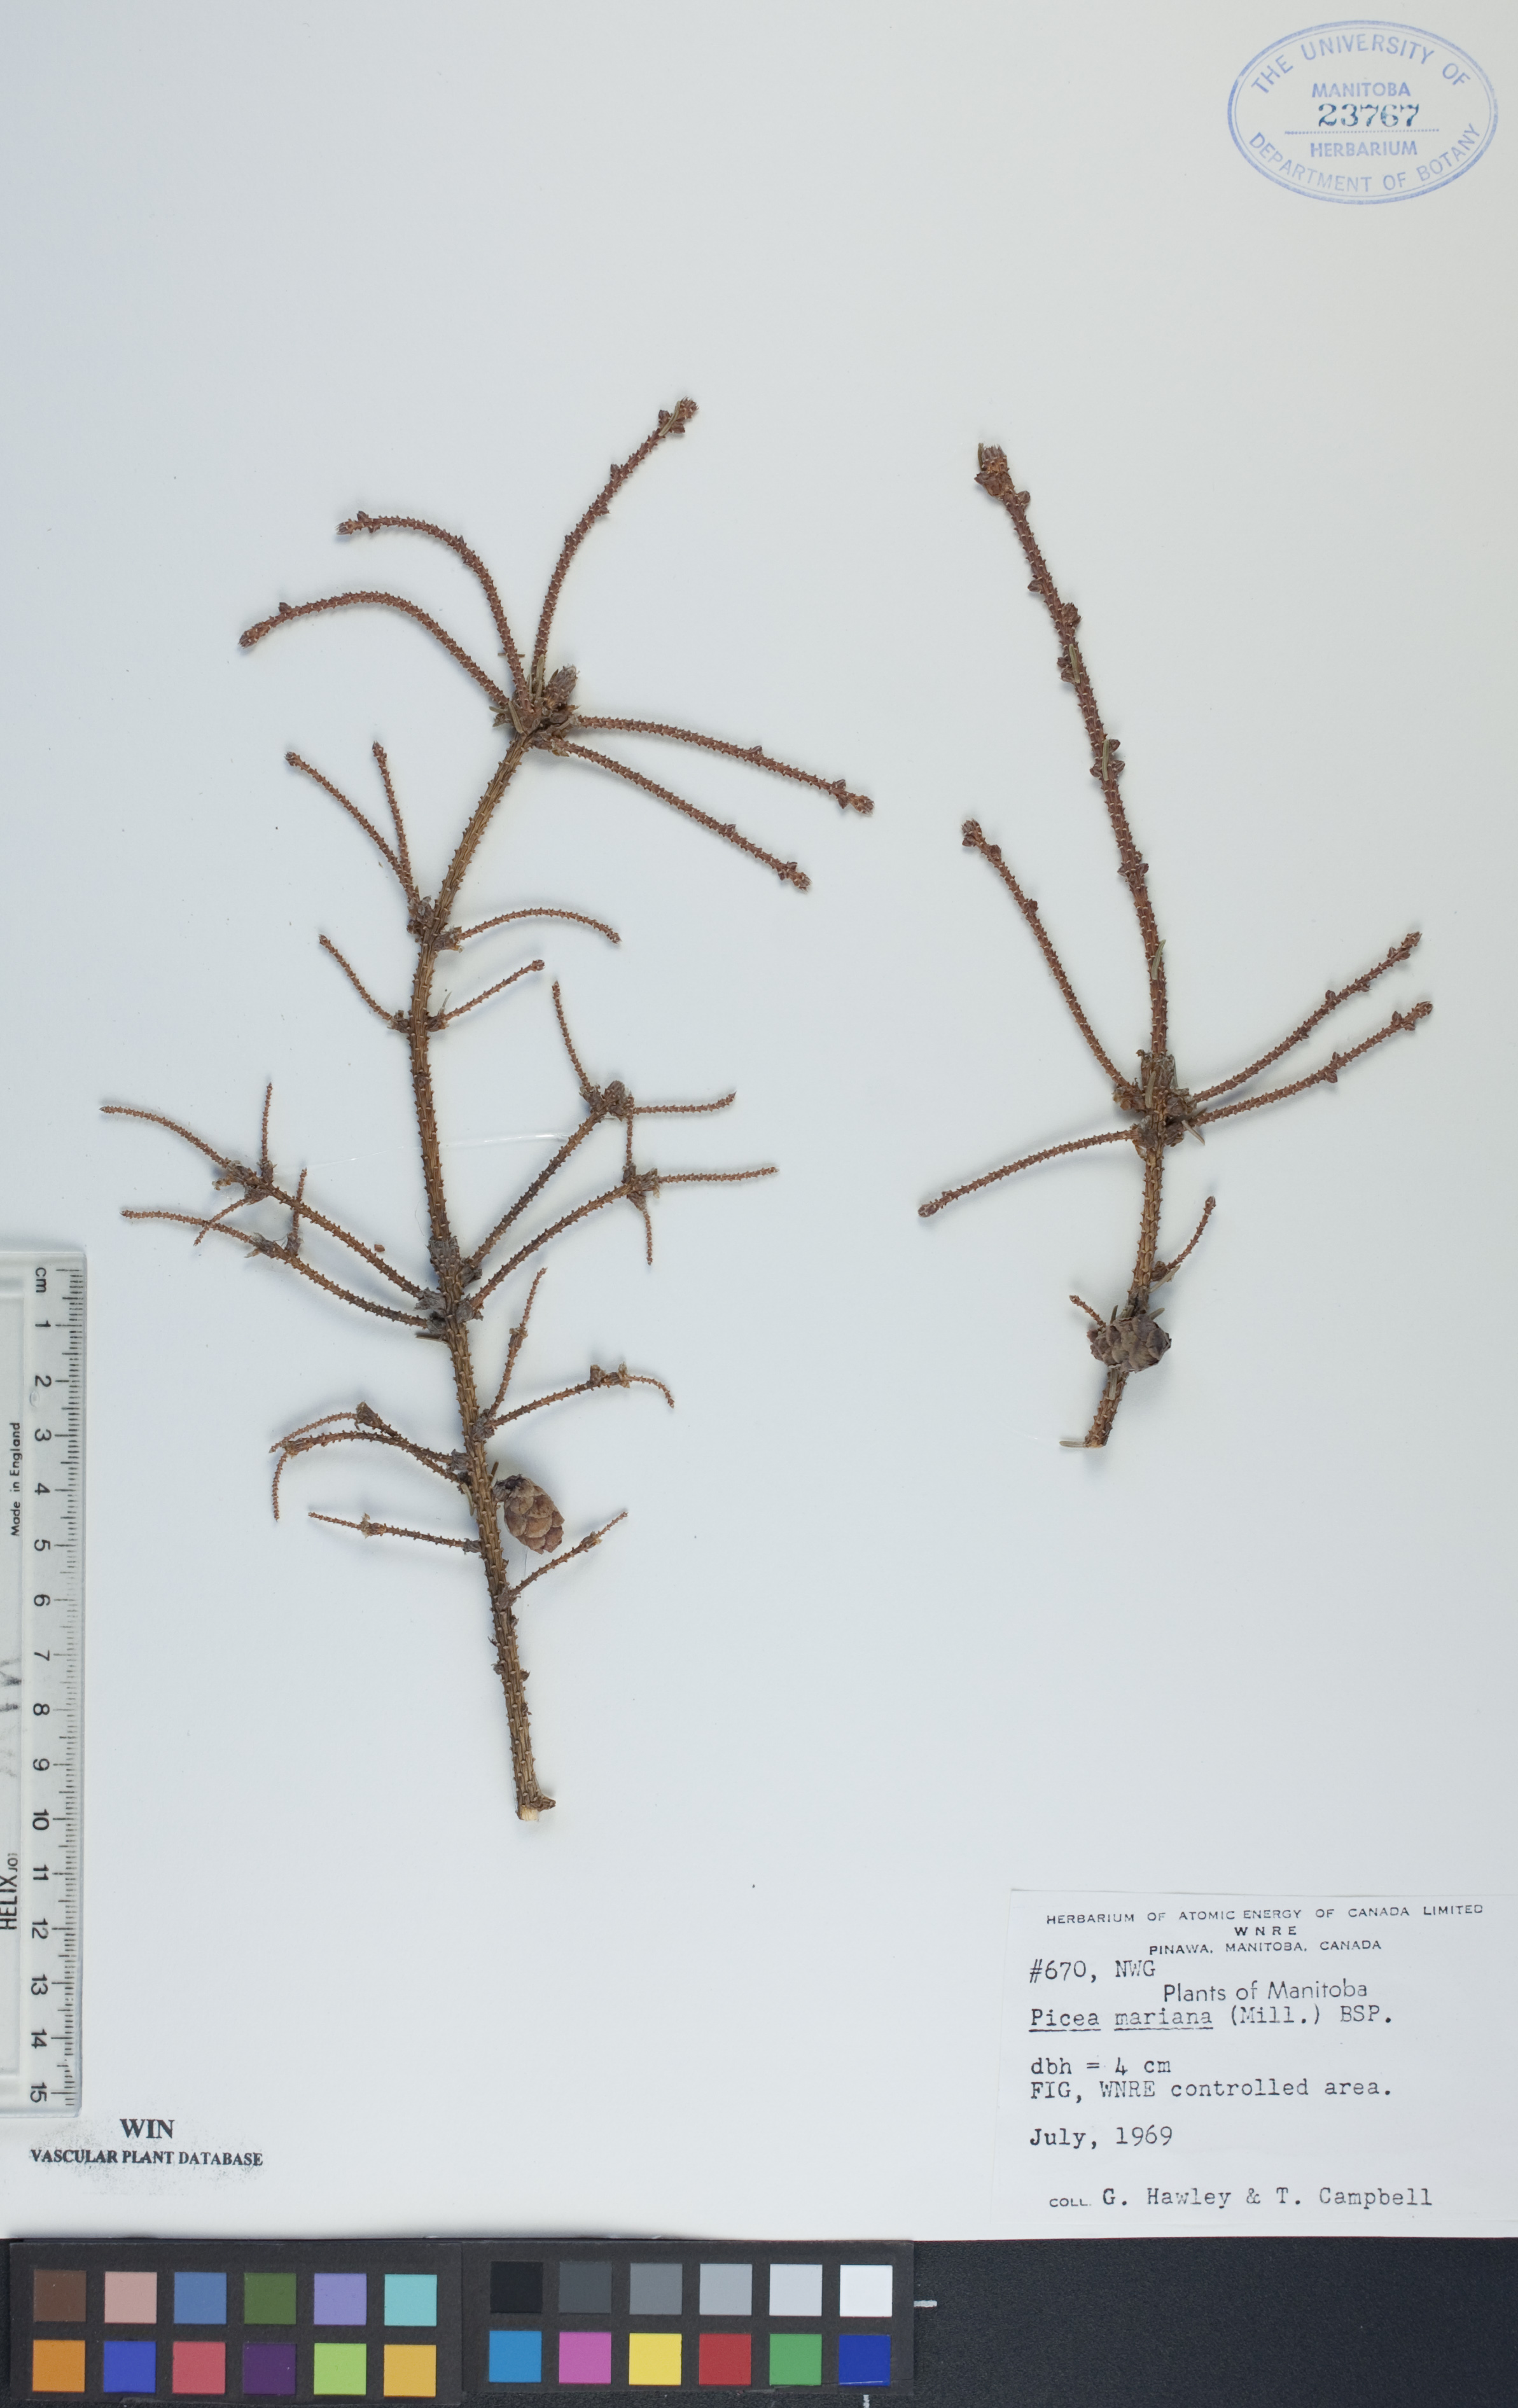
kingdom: Plantae
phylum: Tracheophyta
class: Pinopsida
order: Pinales
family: Pinaceae
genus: Picea
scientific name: Picea mariana
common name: Black spruce
